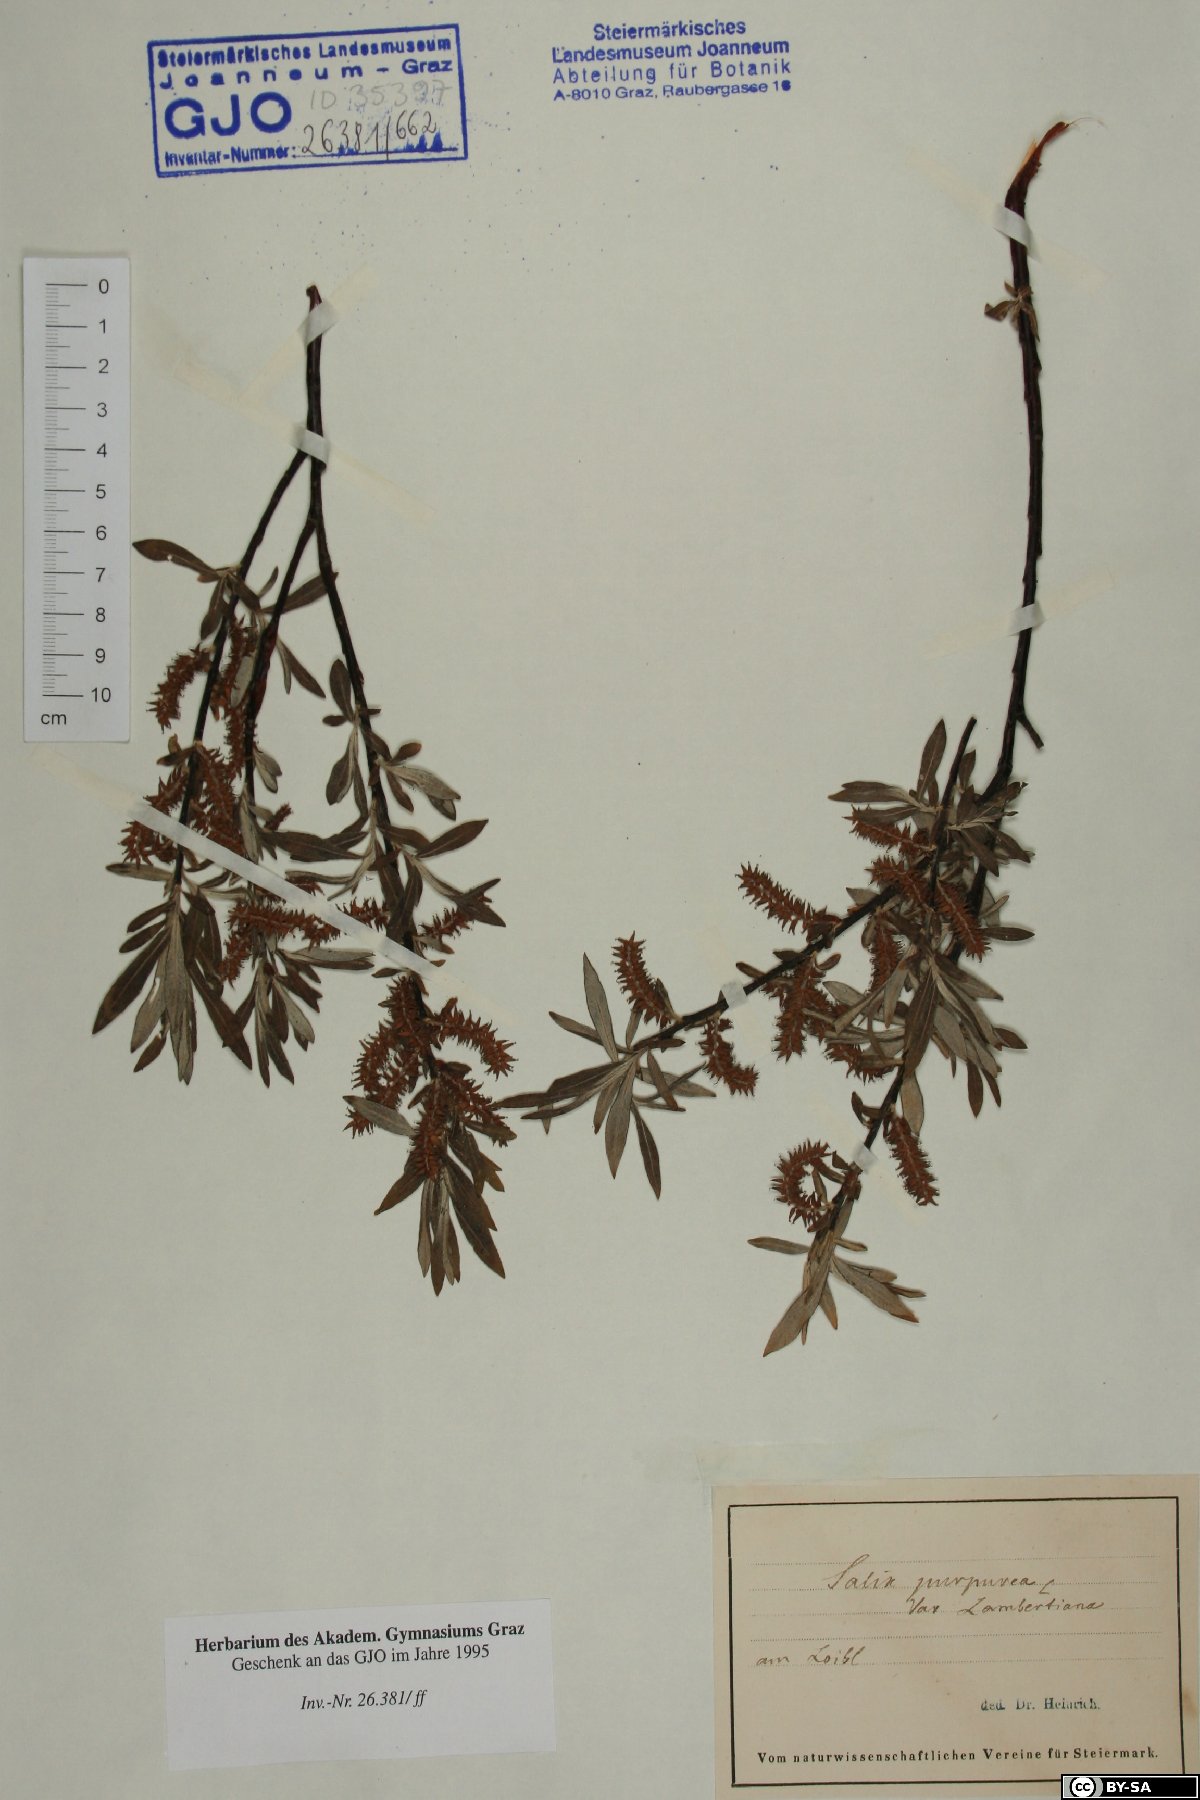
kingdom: Plantae
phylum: Tracheophyta
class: Magnoliopsida
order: Malpighiales
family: Salicaceae
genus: Salix
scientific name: Salix lambertiana
